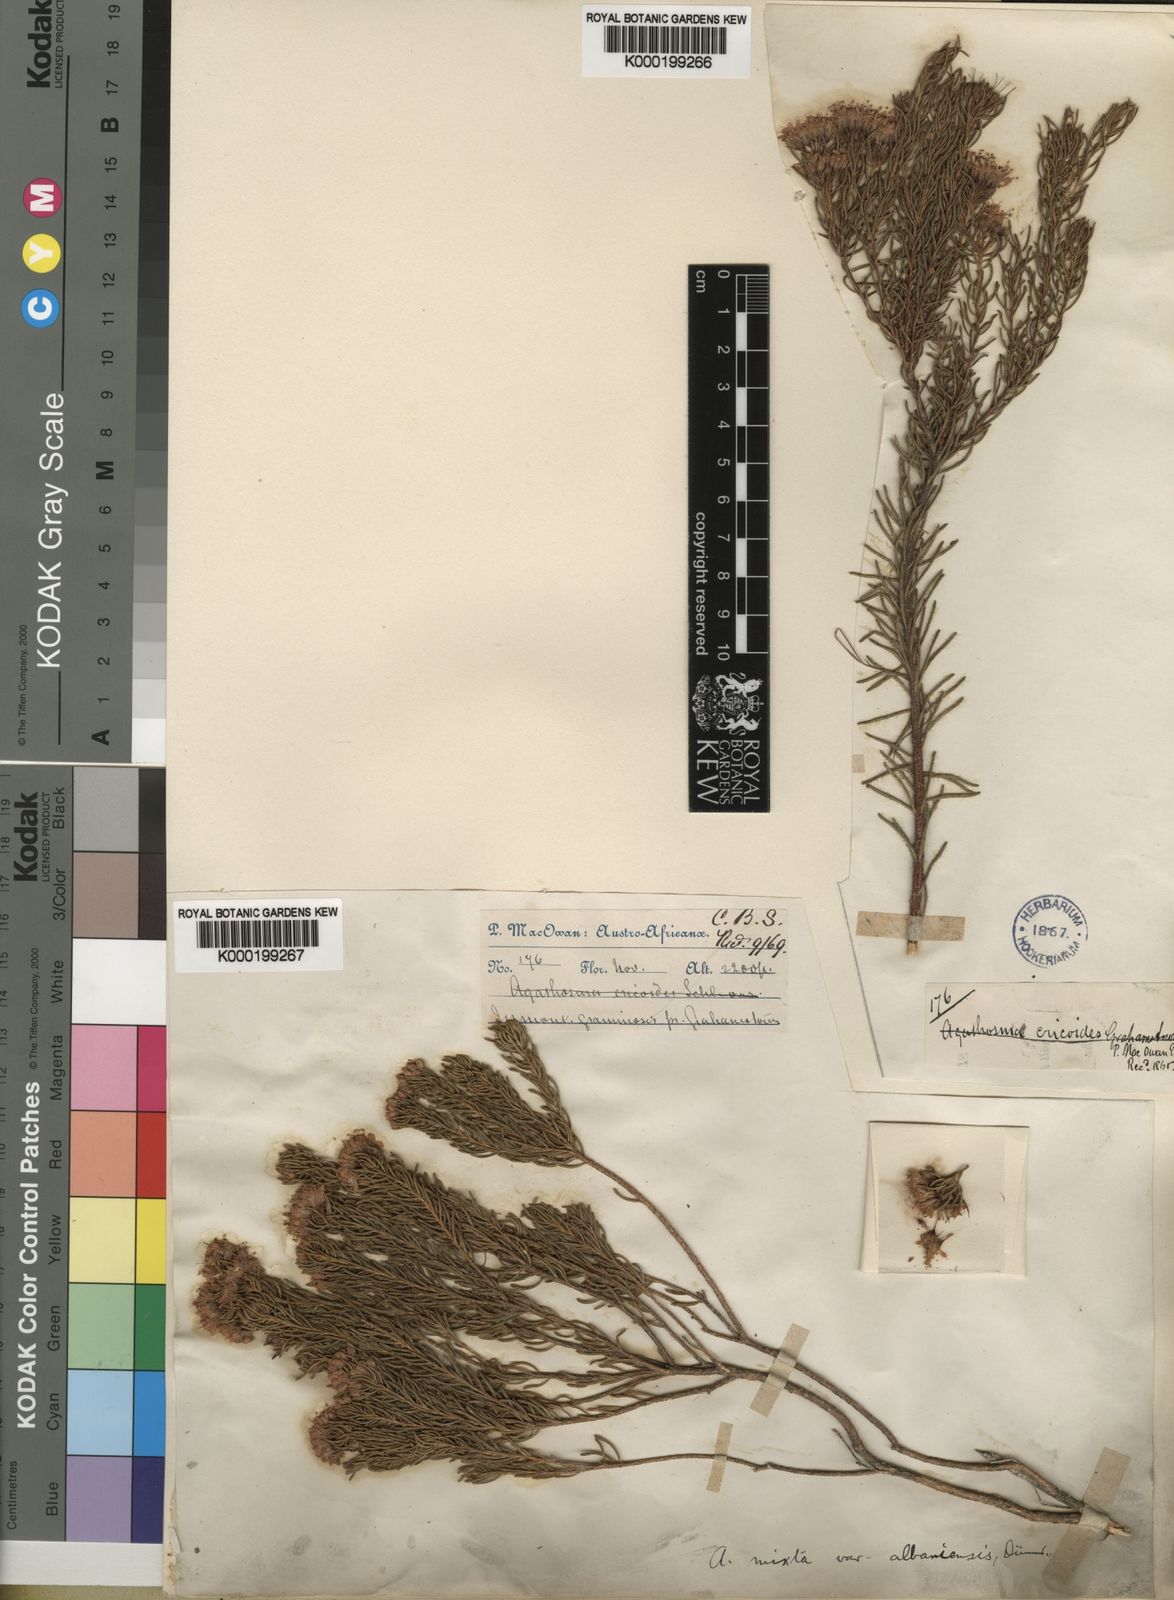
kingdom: Plantae
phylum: Tracheophyta
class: Magnoliopsida
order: Sapindales
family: Rutaceae
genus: Agathosma
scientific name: Agathosma peglerae
